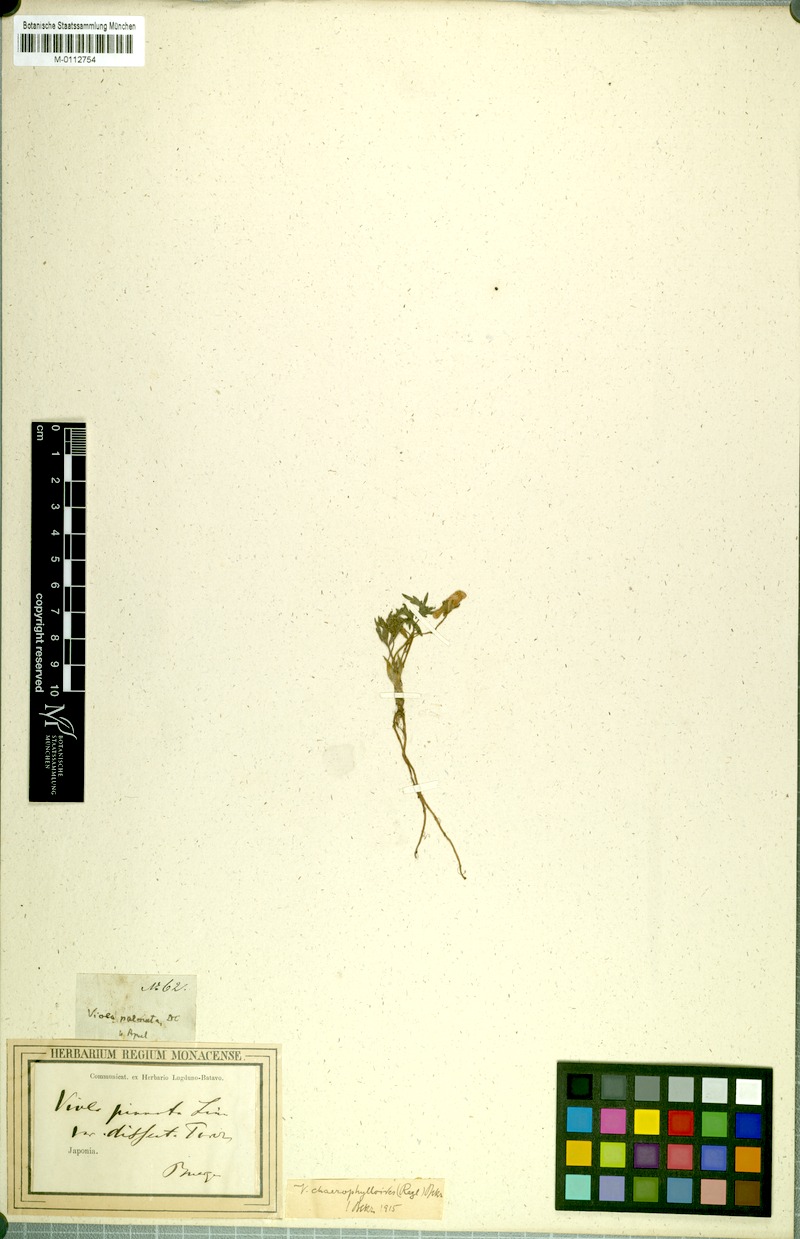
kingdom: Plantae
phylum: Tracheophyta
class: Magnoliopsida
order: Malpighiales
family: Violaceae
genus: Viola
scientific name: Viola albida
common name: Korean violet
